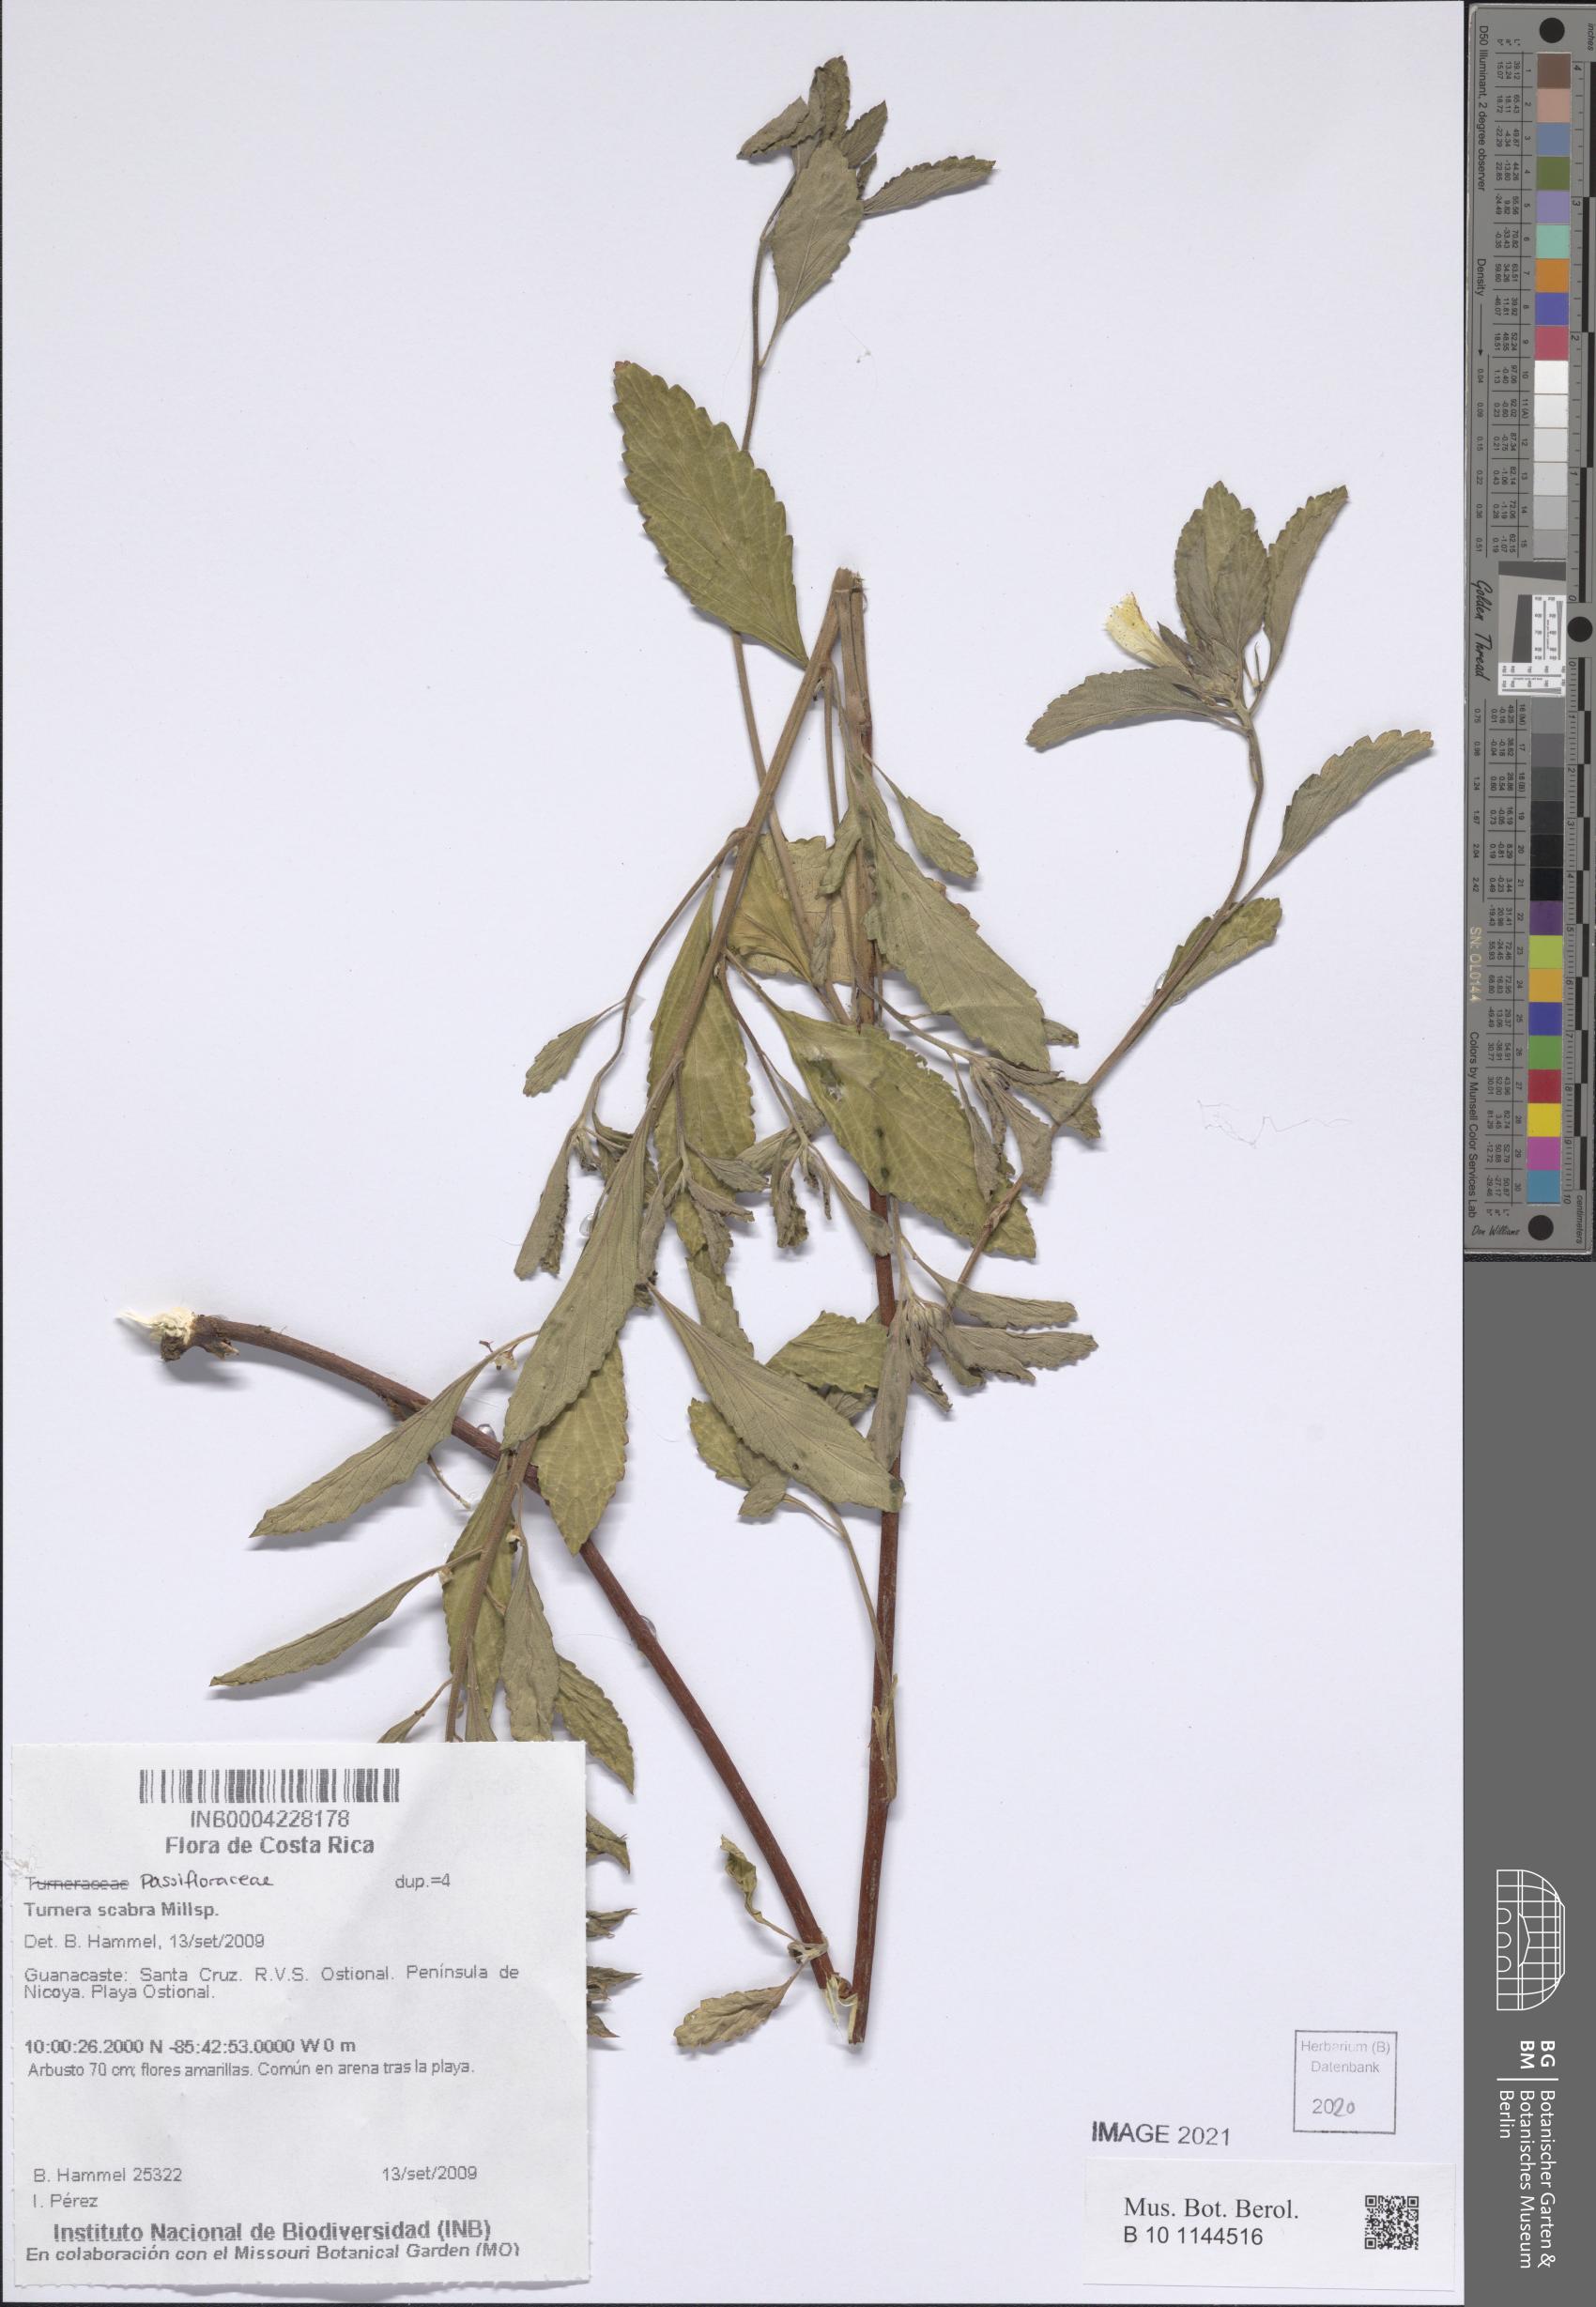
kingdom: Plantae
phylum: Tracheophyta
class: Magnoliopsida
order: Malpighiales
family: Turneraceae
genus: Turnera
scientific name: Turnera scabra
